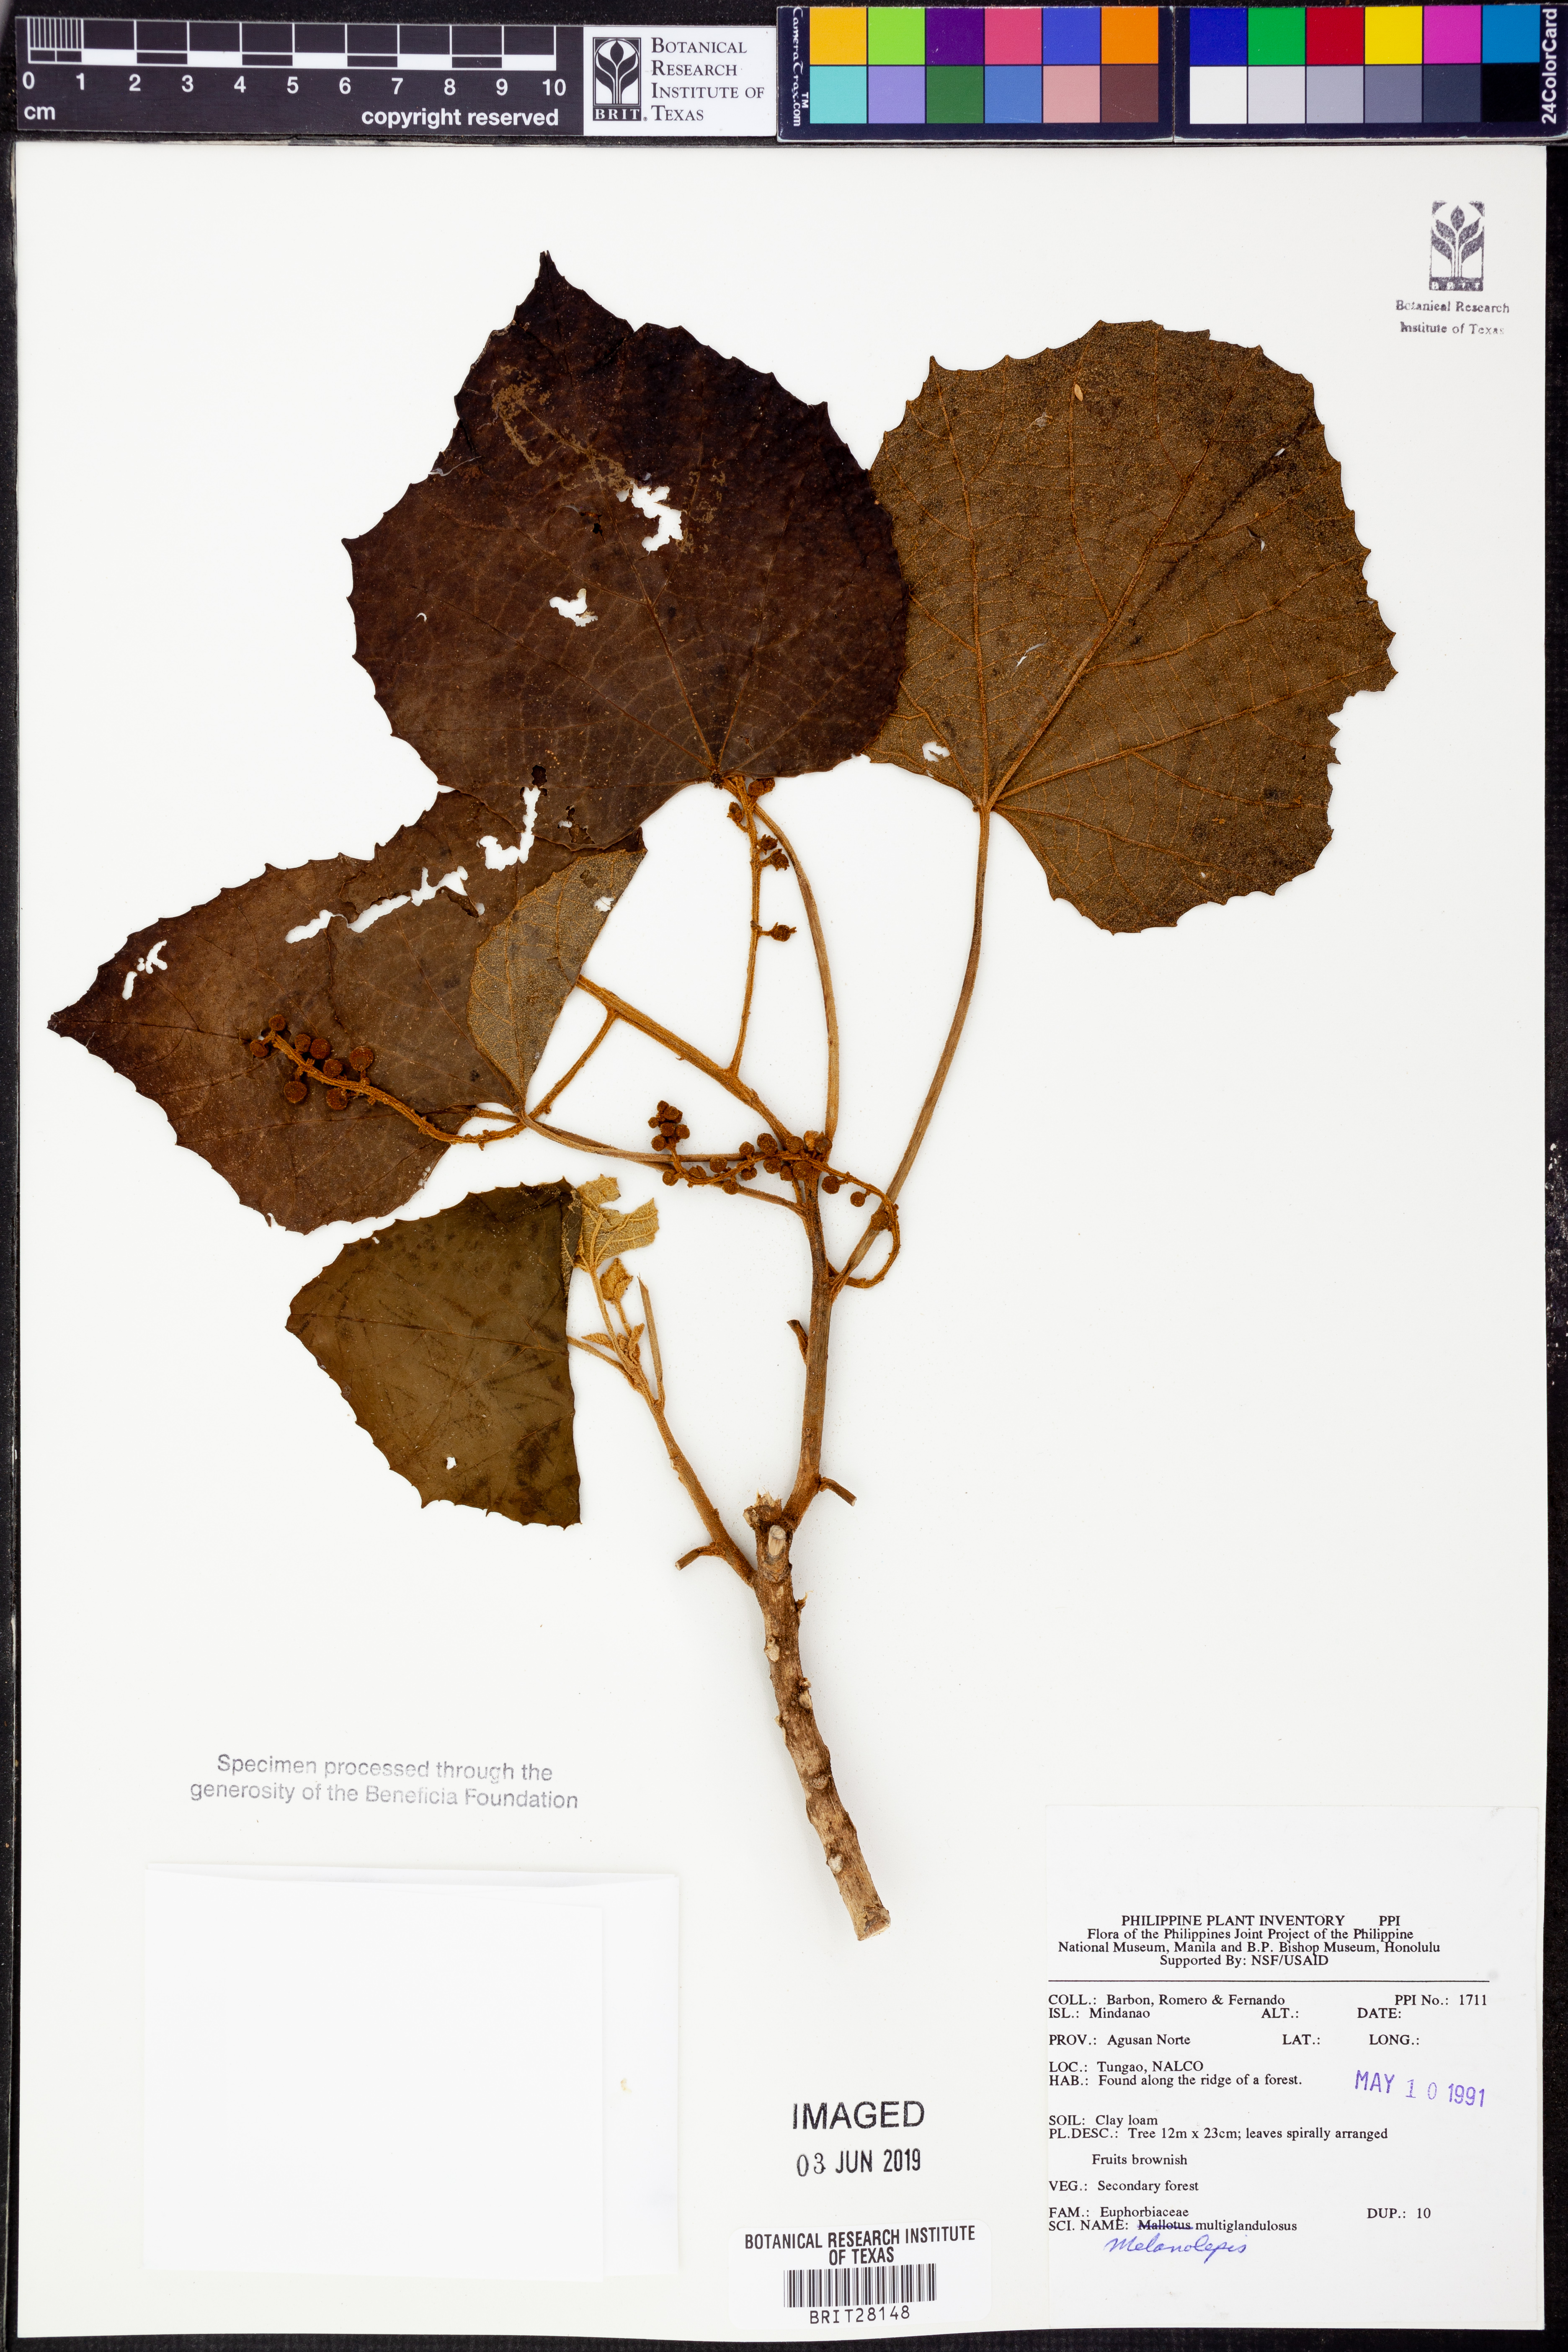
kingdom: Plantae
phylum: Tracheophyta
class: Magnoliopsida
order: Malpighiales
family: Euphorbiaceae
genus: Melanolepis
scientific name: Melanolepis multiglandulosa
